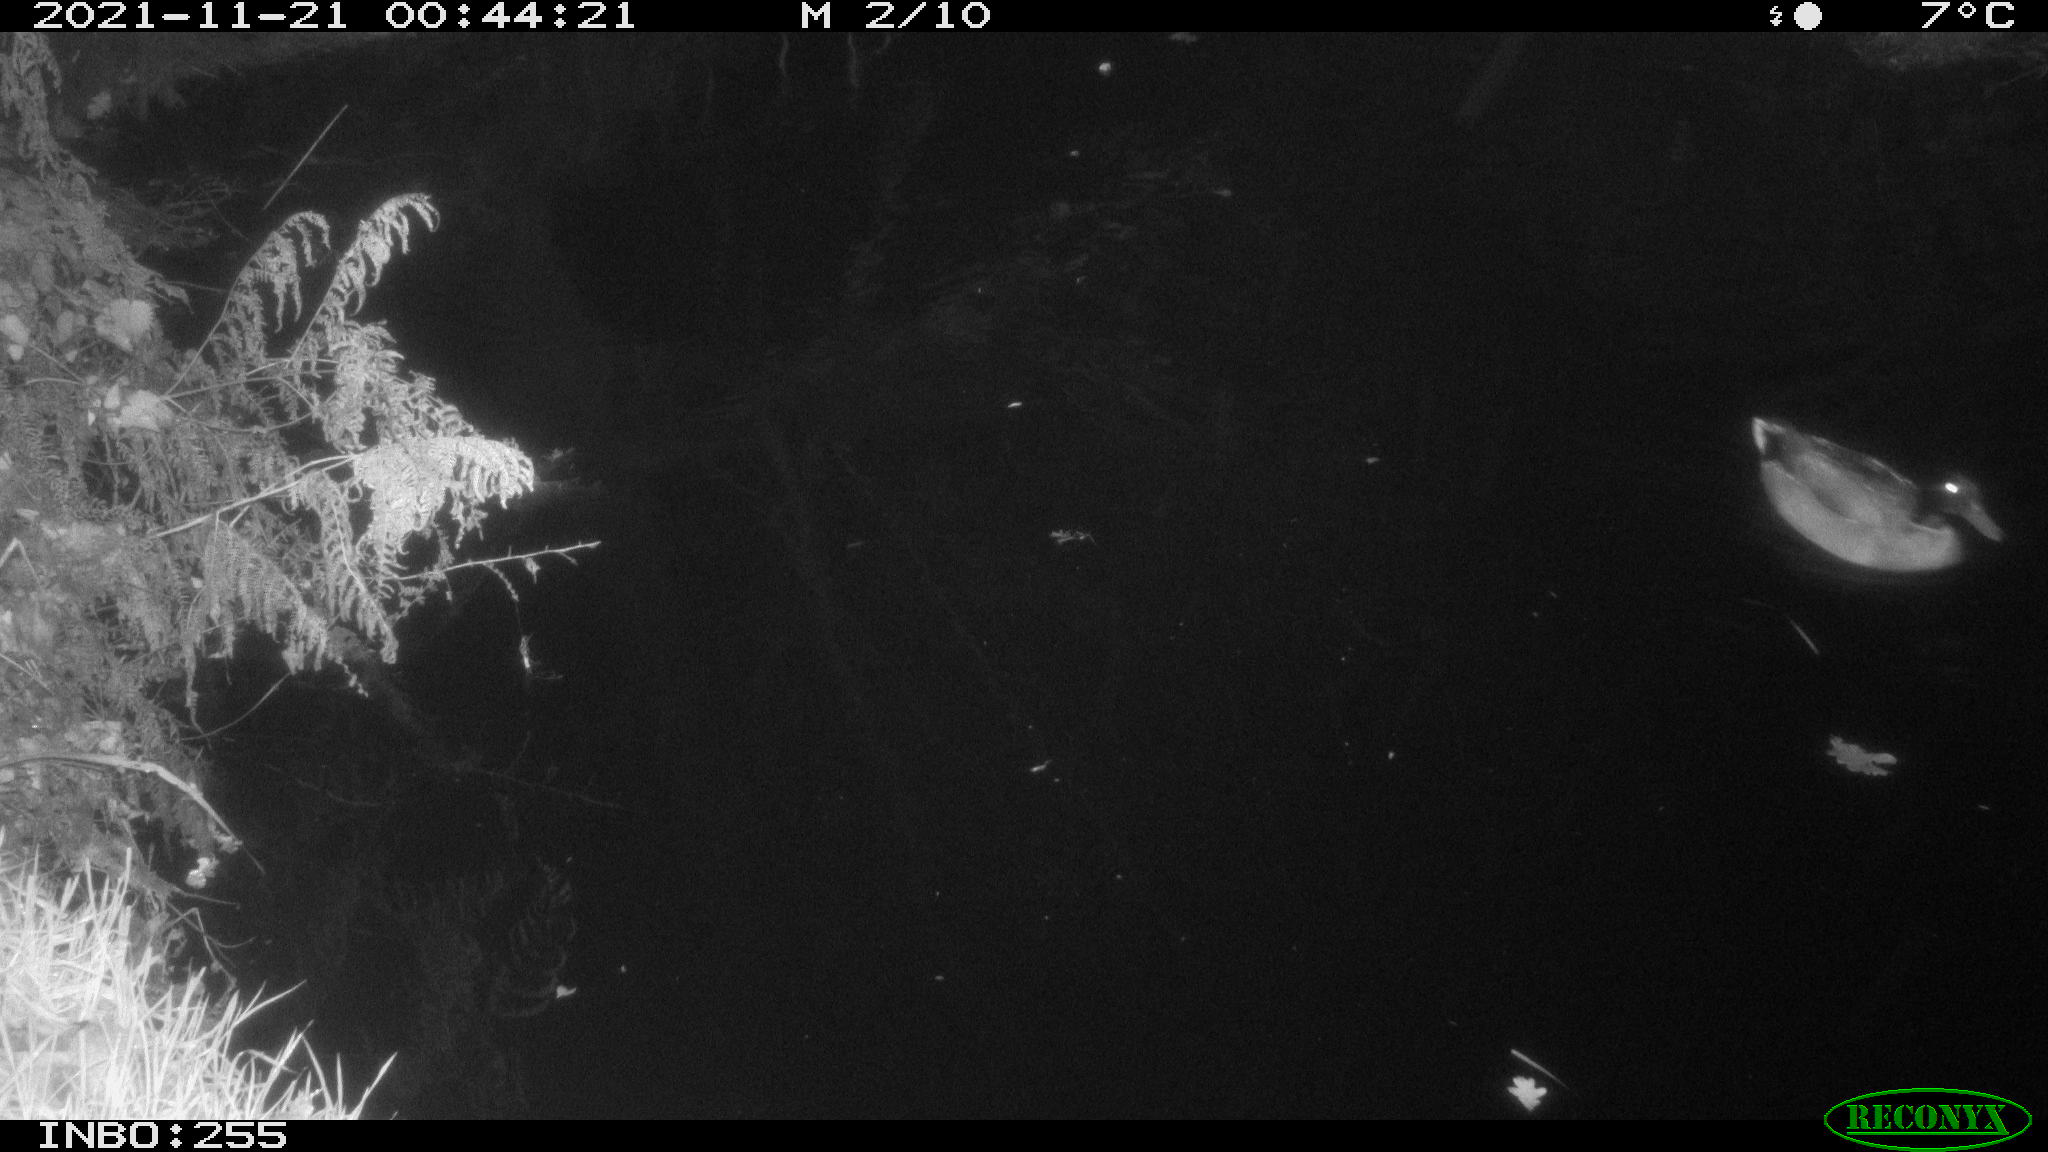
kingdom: Animalia
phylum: Chordata
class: Aves
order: Anseriformes
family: Anatidae
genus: Anas
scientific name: Anas platyrhynchos
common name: Mallard
